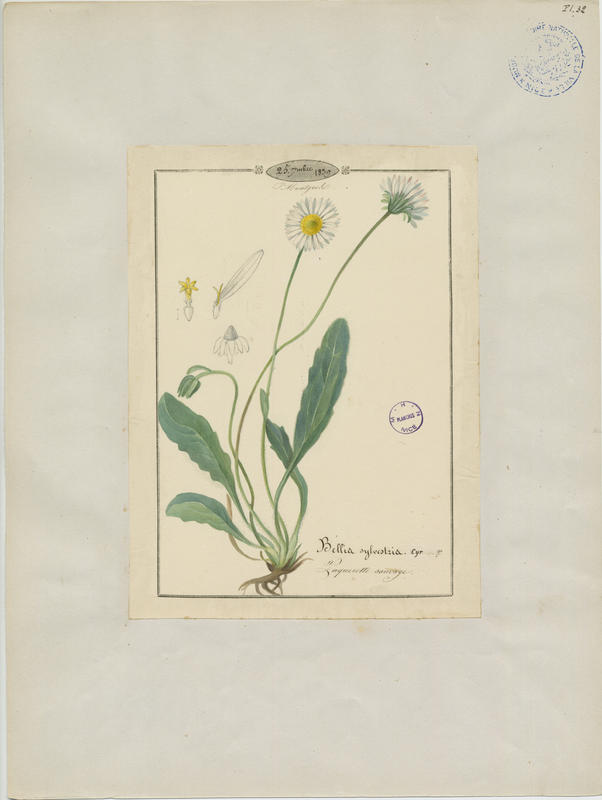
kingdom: Plantae
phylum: Tracheophyta
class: Magnoliopsida
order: Asterales
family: Asteraceae
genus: Bellis
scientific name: Bellis sylvestris
